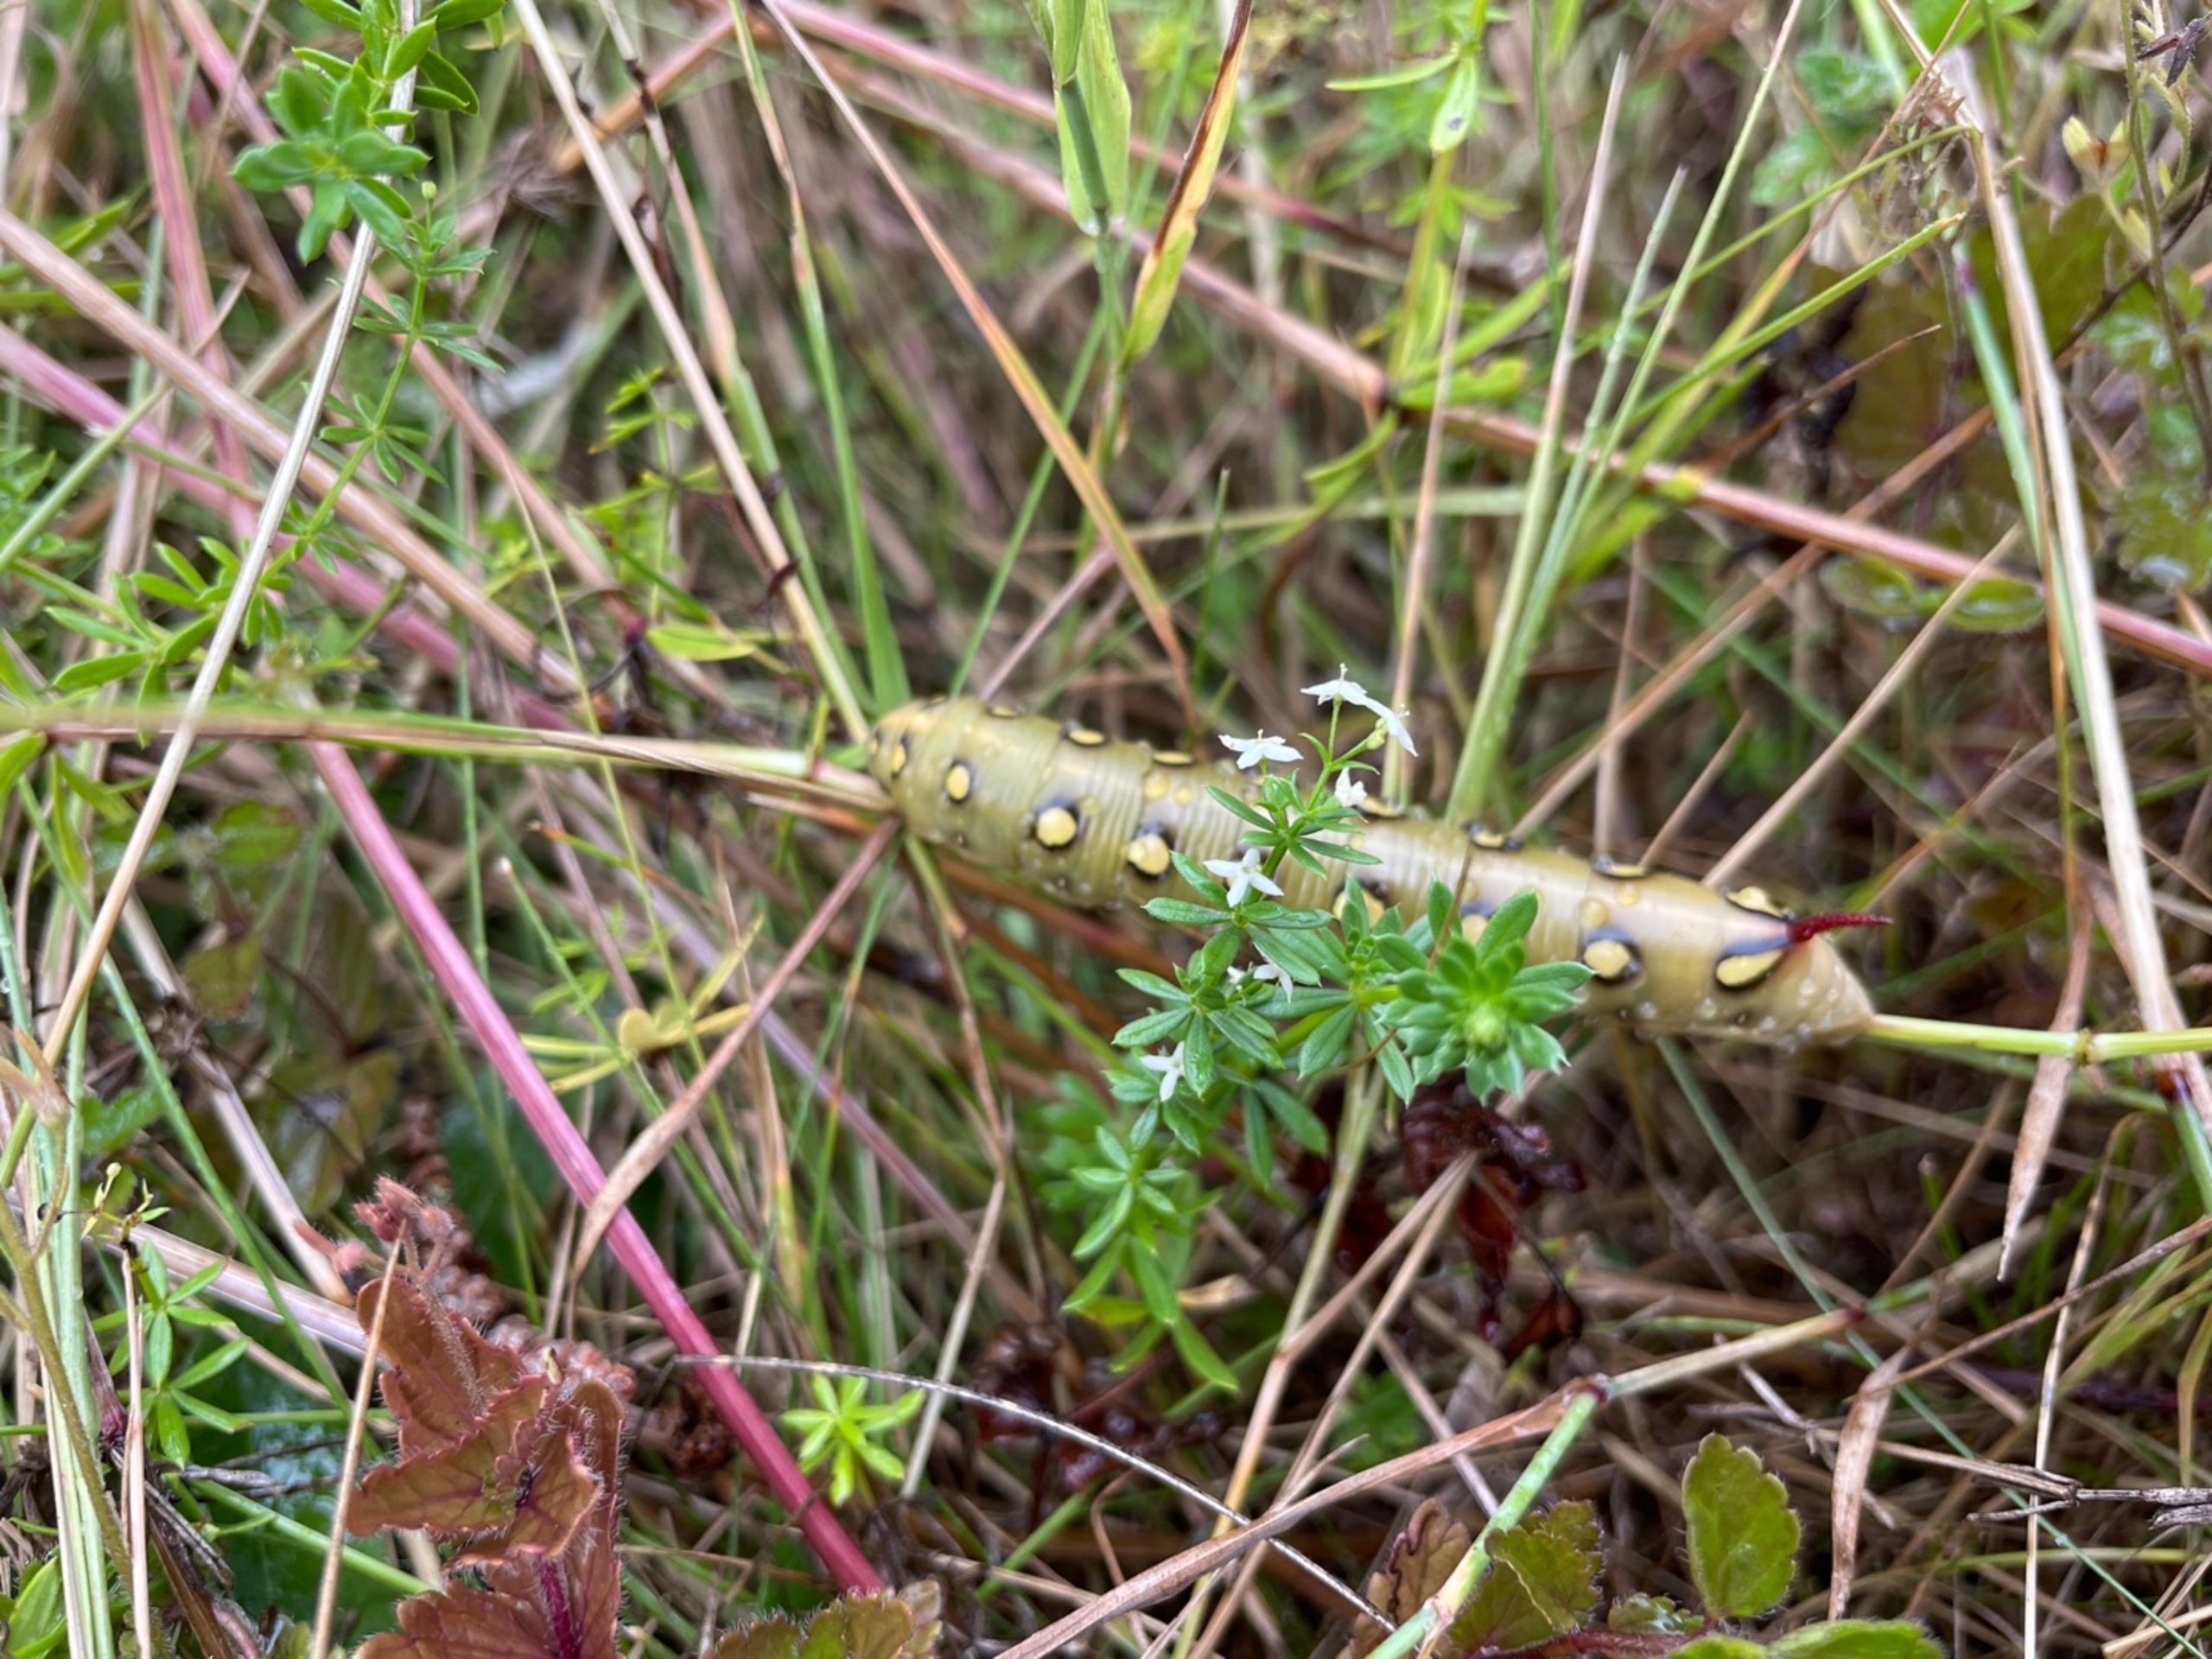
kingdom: Animalia
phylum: Arthropoda
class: Insecta
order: Lepidoptera
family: Sphingidae
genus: Hyles
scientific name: Hyles gallii
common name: Snerresværmer
